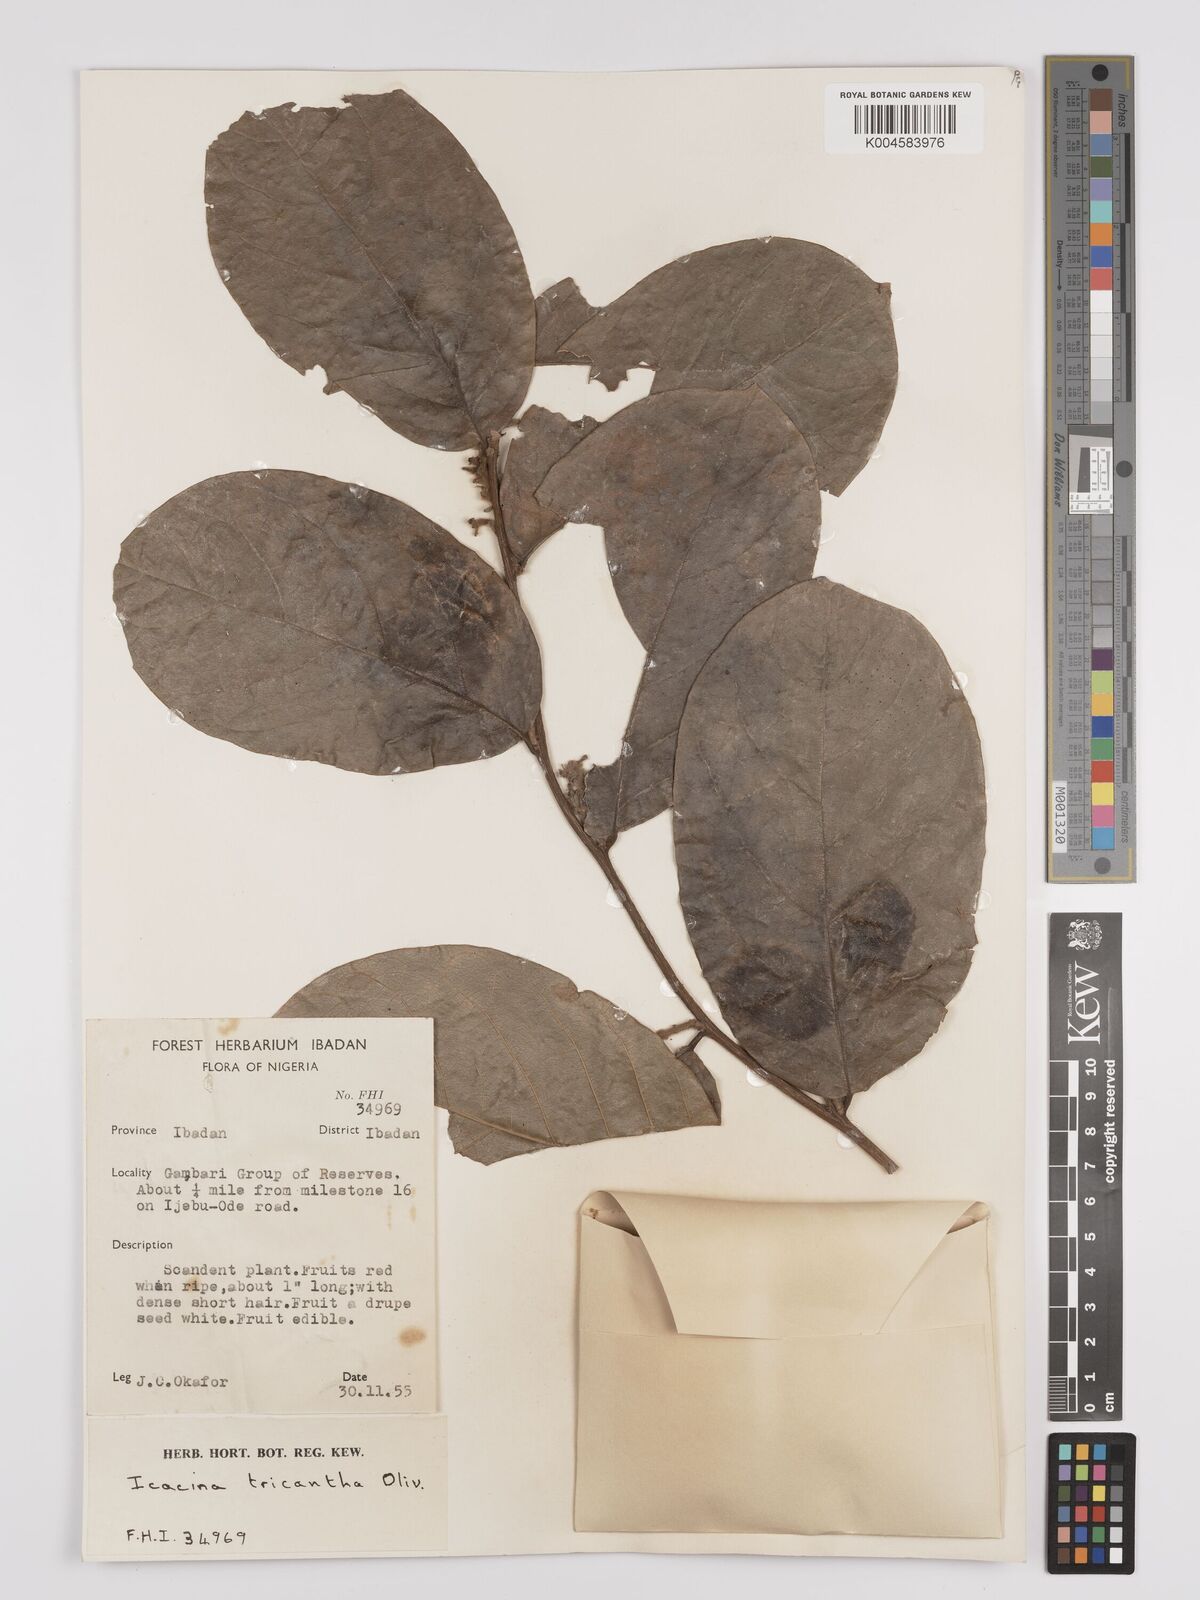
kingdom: Plantae
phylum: Tracheophyta
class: Magnoliopsida
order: Icacinales
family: Icacinaceae
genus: Icacina
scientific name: Icacina trichantha
